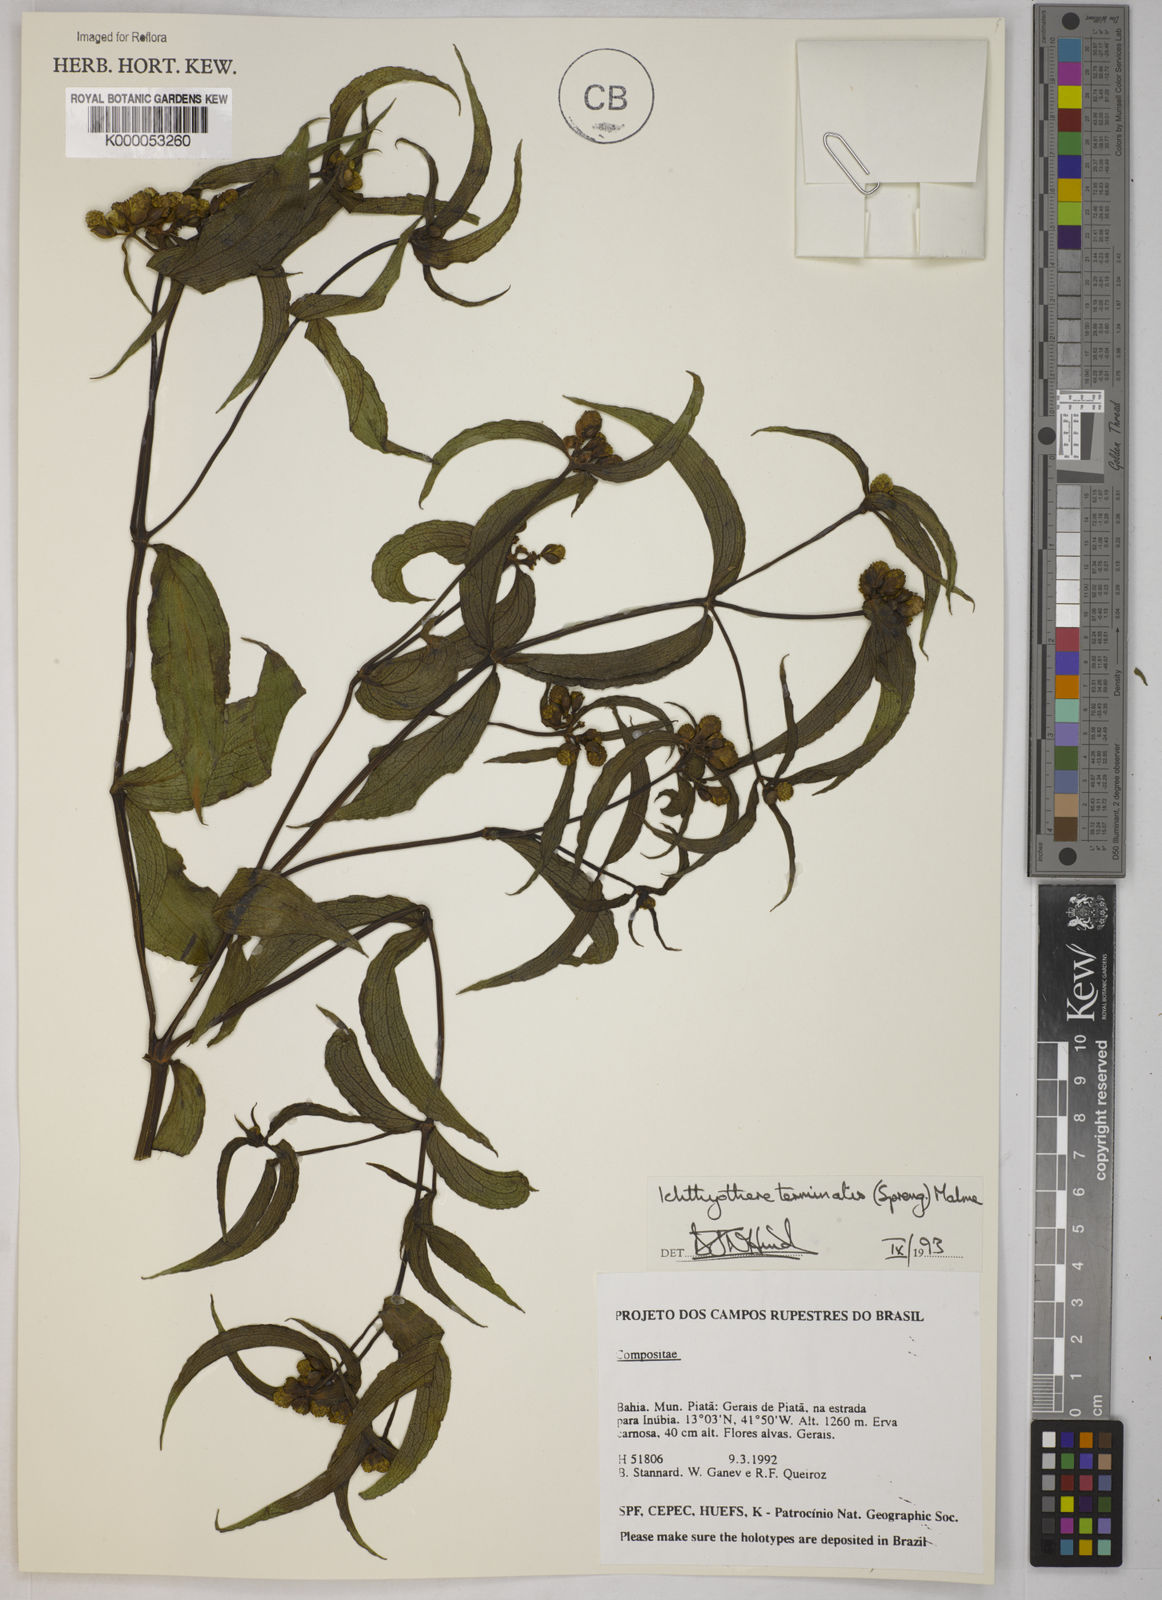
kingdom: Plantae
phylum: Tracheophyta
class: Magnoliopsida
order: Asterales
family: Asteraceae
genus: Ichthyothere
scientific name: Ichthyothere terminalis
